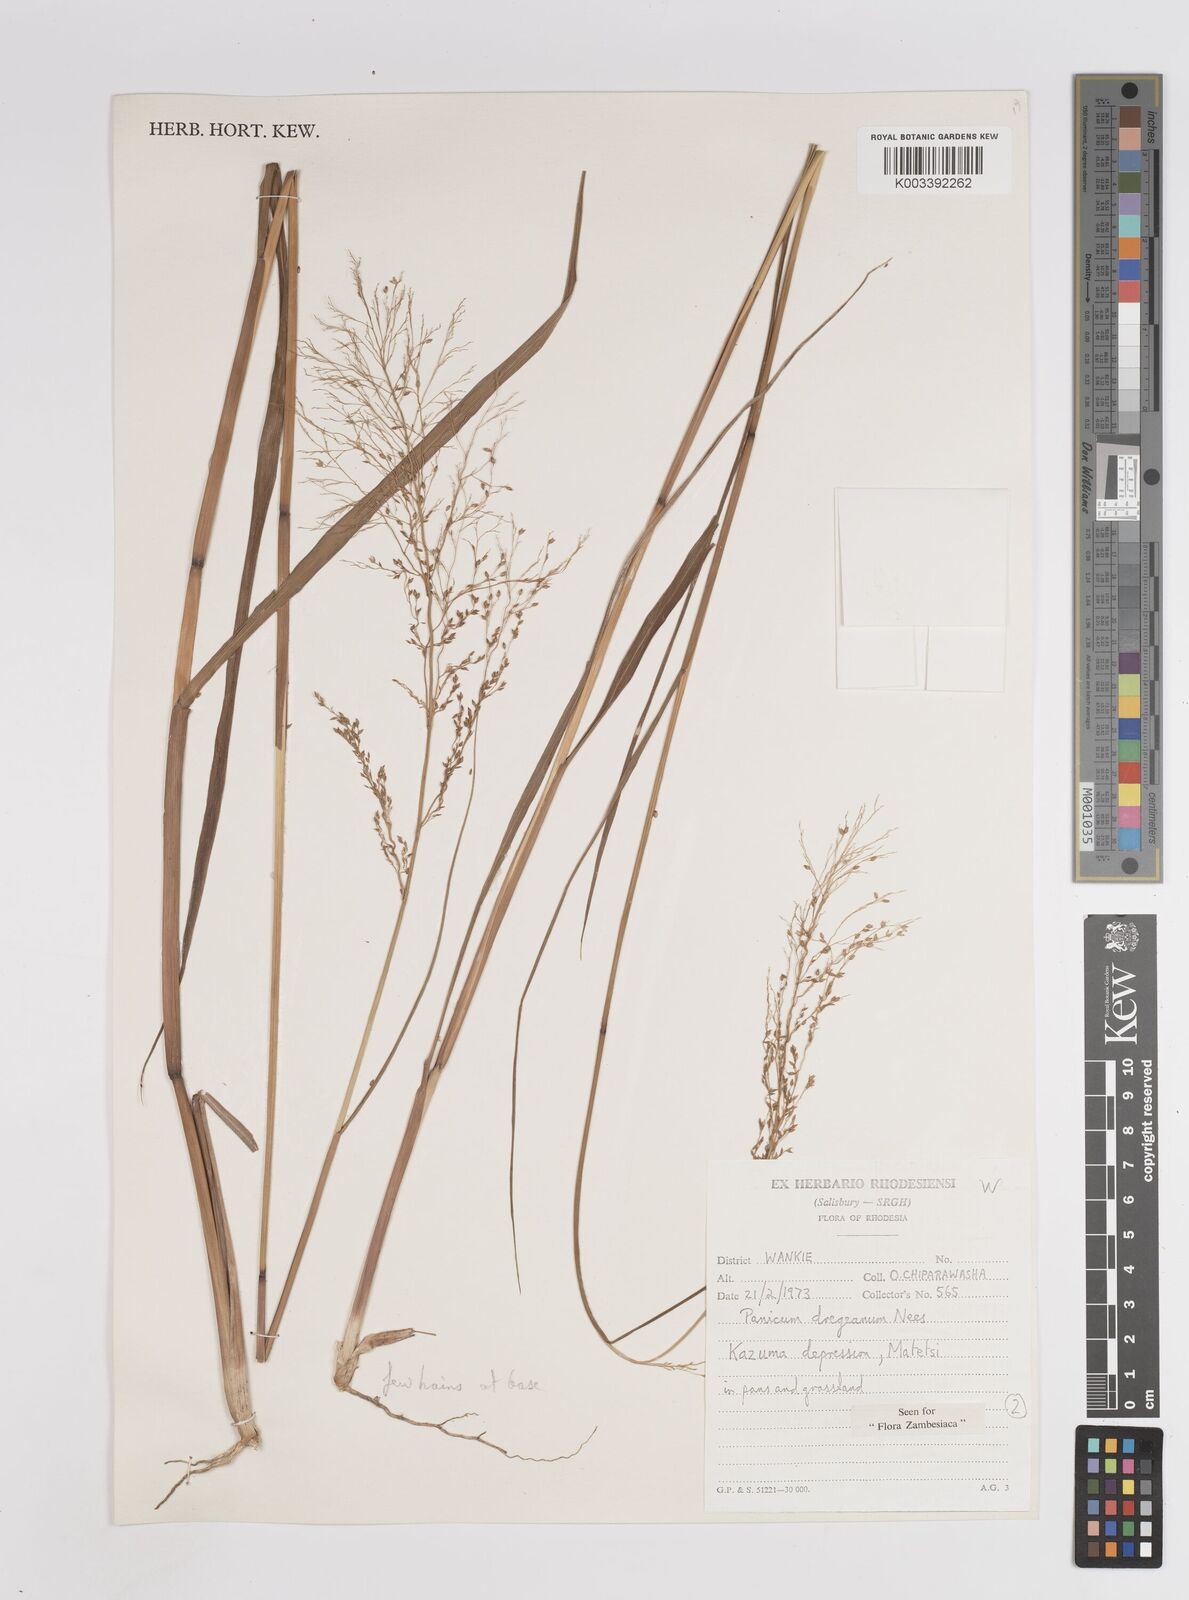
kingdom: Plantae
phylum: Tracheophyta
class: Liliopsida
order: Poales
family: Poaceae
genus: Panicum
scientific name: Panicum dregeanum
